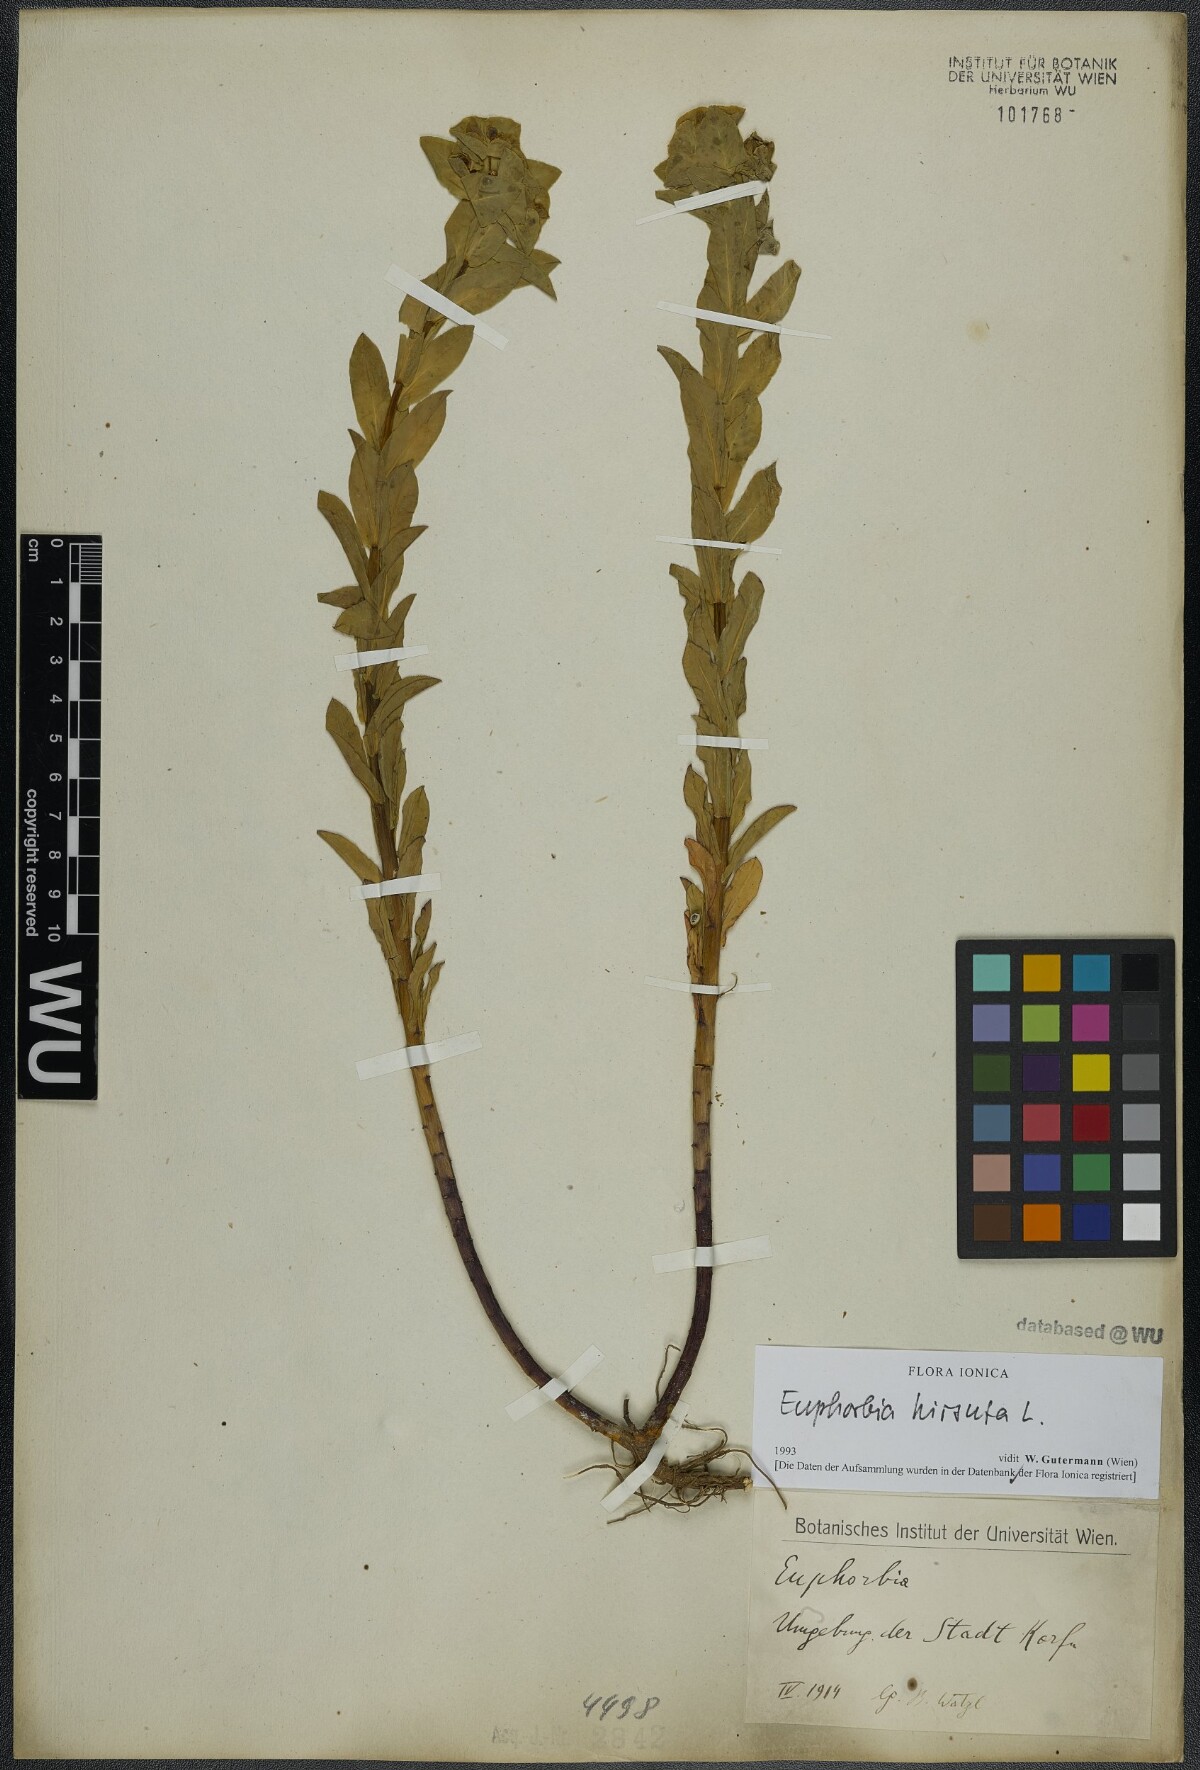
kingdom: Plantae
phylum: Tracheophyta
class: Magnoliopsida
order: Malpighiales
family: Euphorbiaceae
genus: Euphorbia
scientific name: Euphorbia hirsuta
